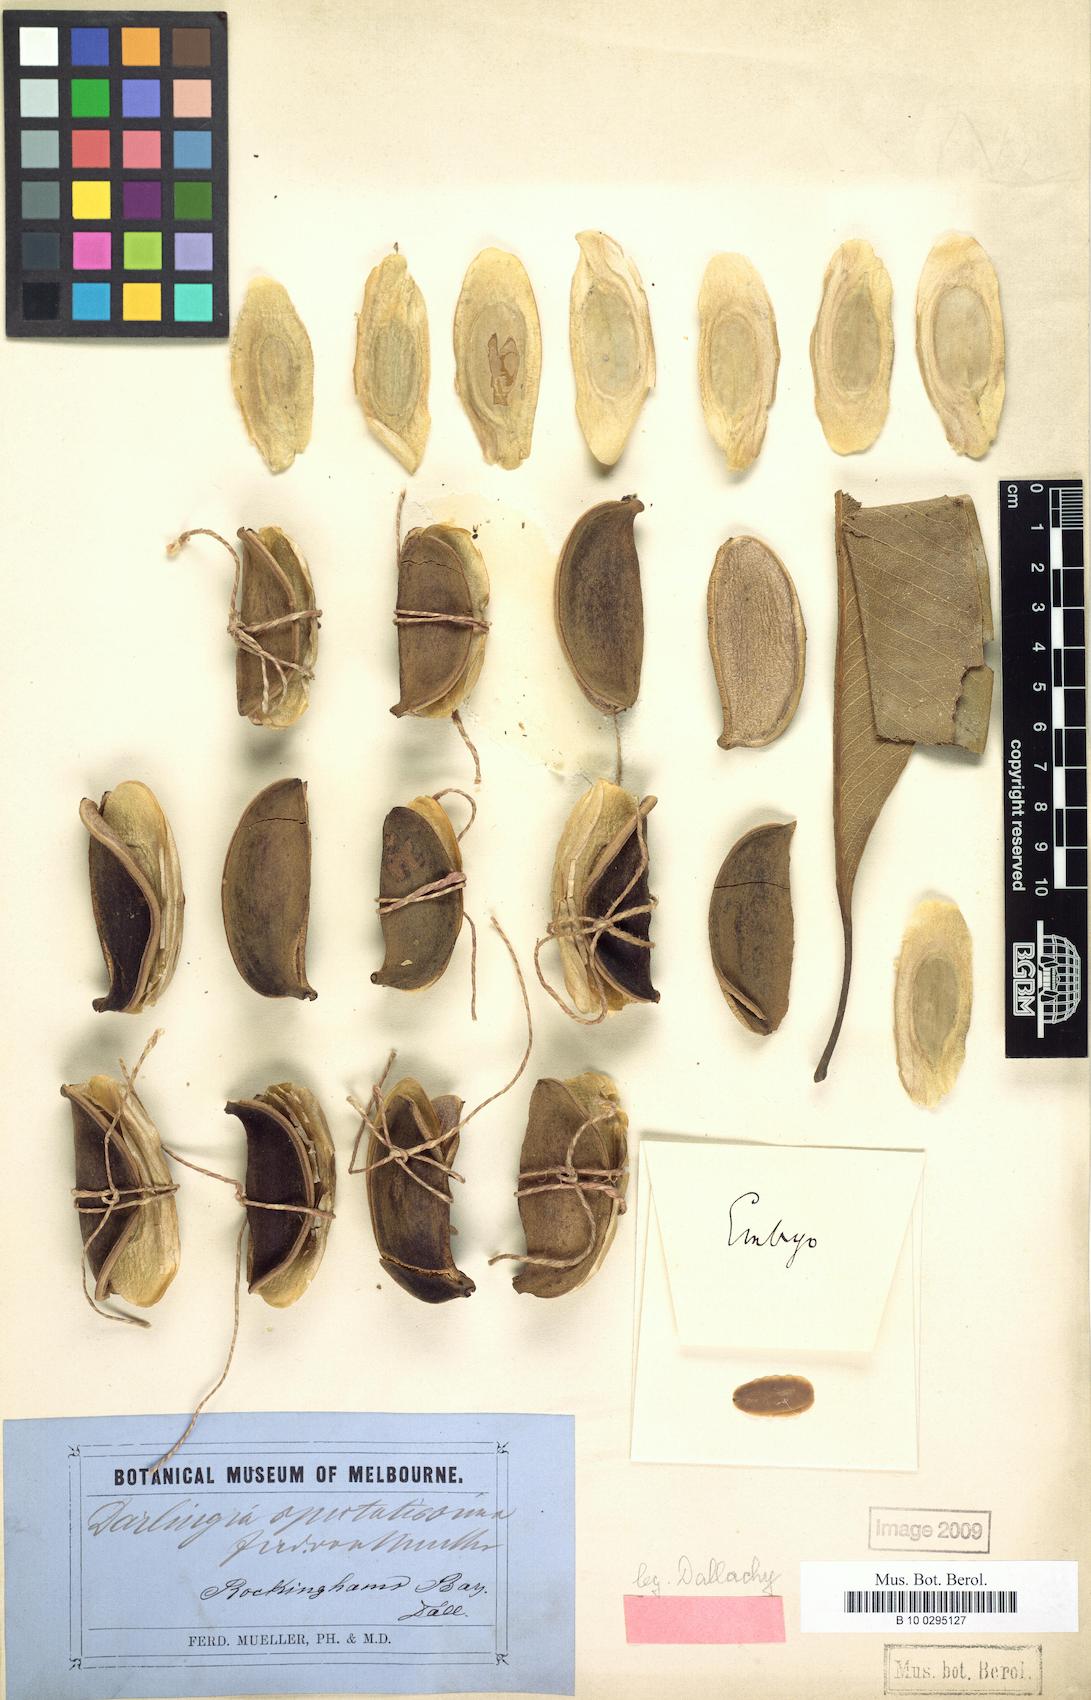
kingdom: Plantae
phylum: Tracheophyta
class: Magnoliopsida
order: Proteales
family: Proteaceae
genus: Darlingia
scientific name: Darlingia darlingiana
